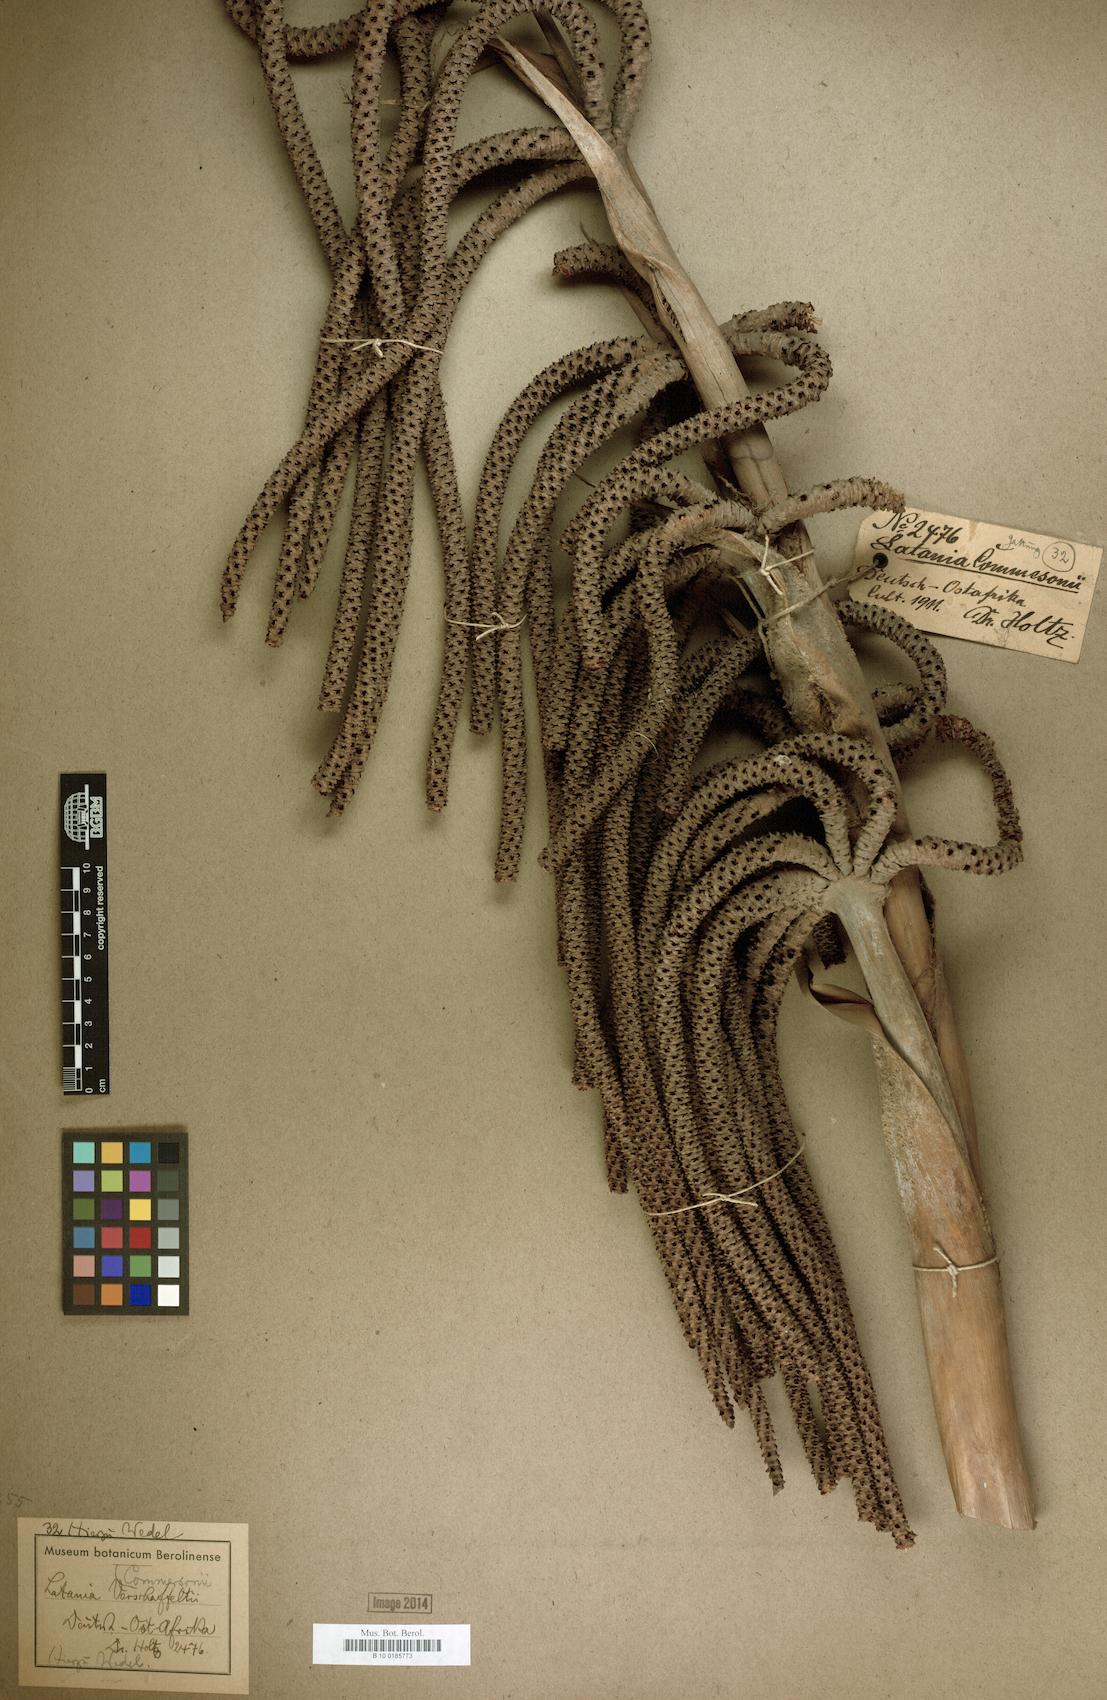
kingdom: Plantae
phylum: Tracheophyta
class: Liliopsida
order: Arecales
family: Arecaceae
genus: Latania
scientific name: Latania lontaroides
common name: Red latan
